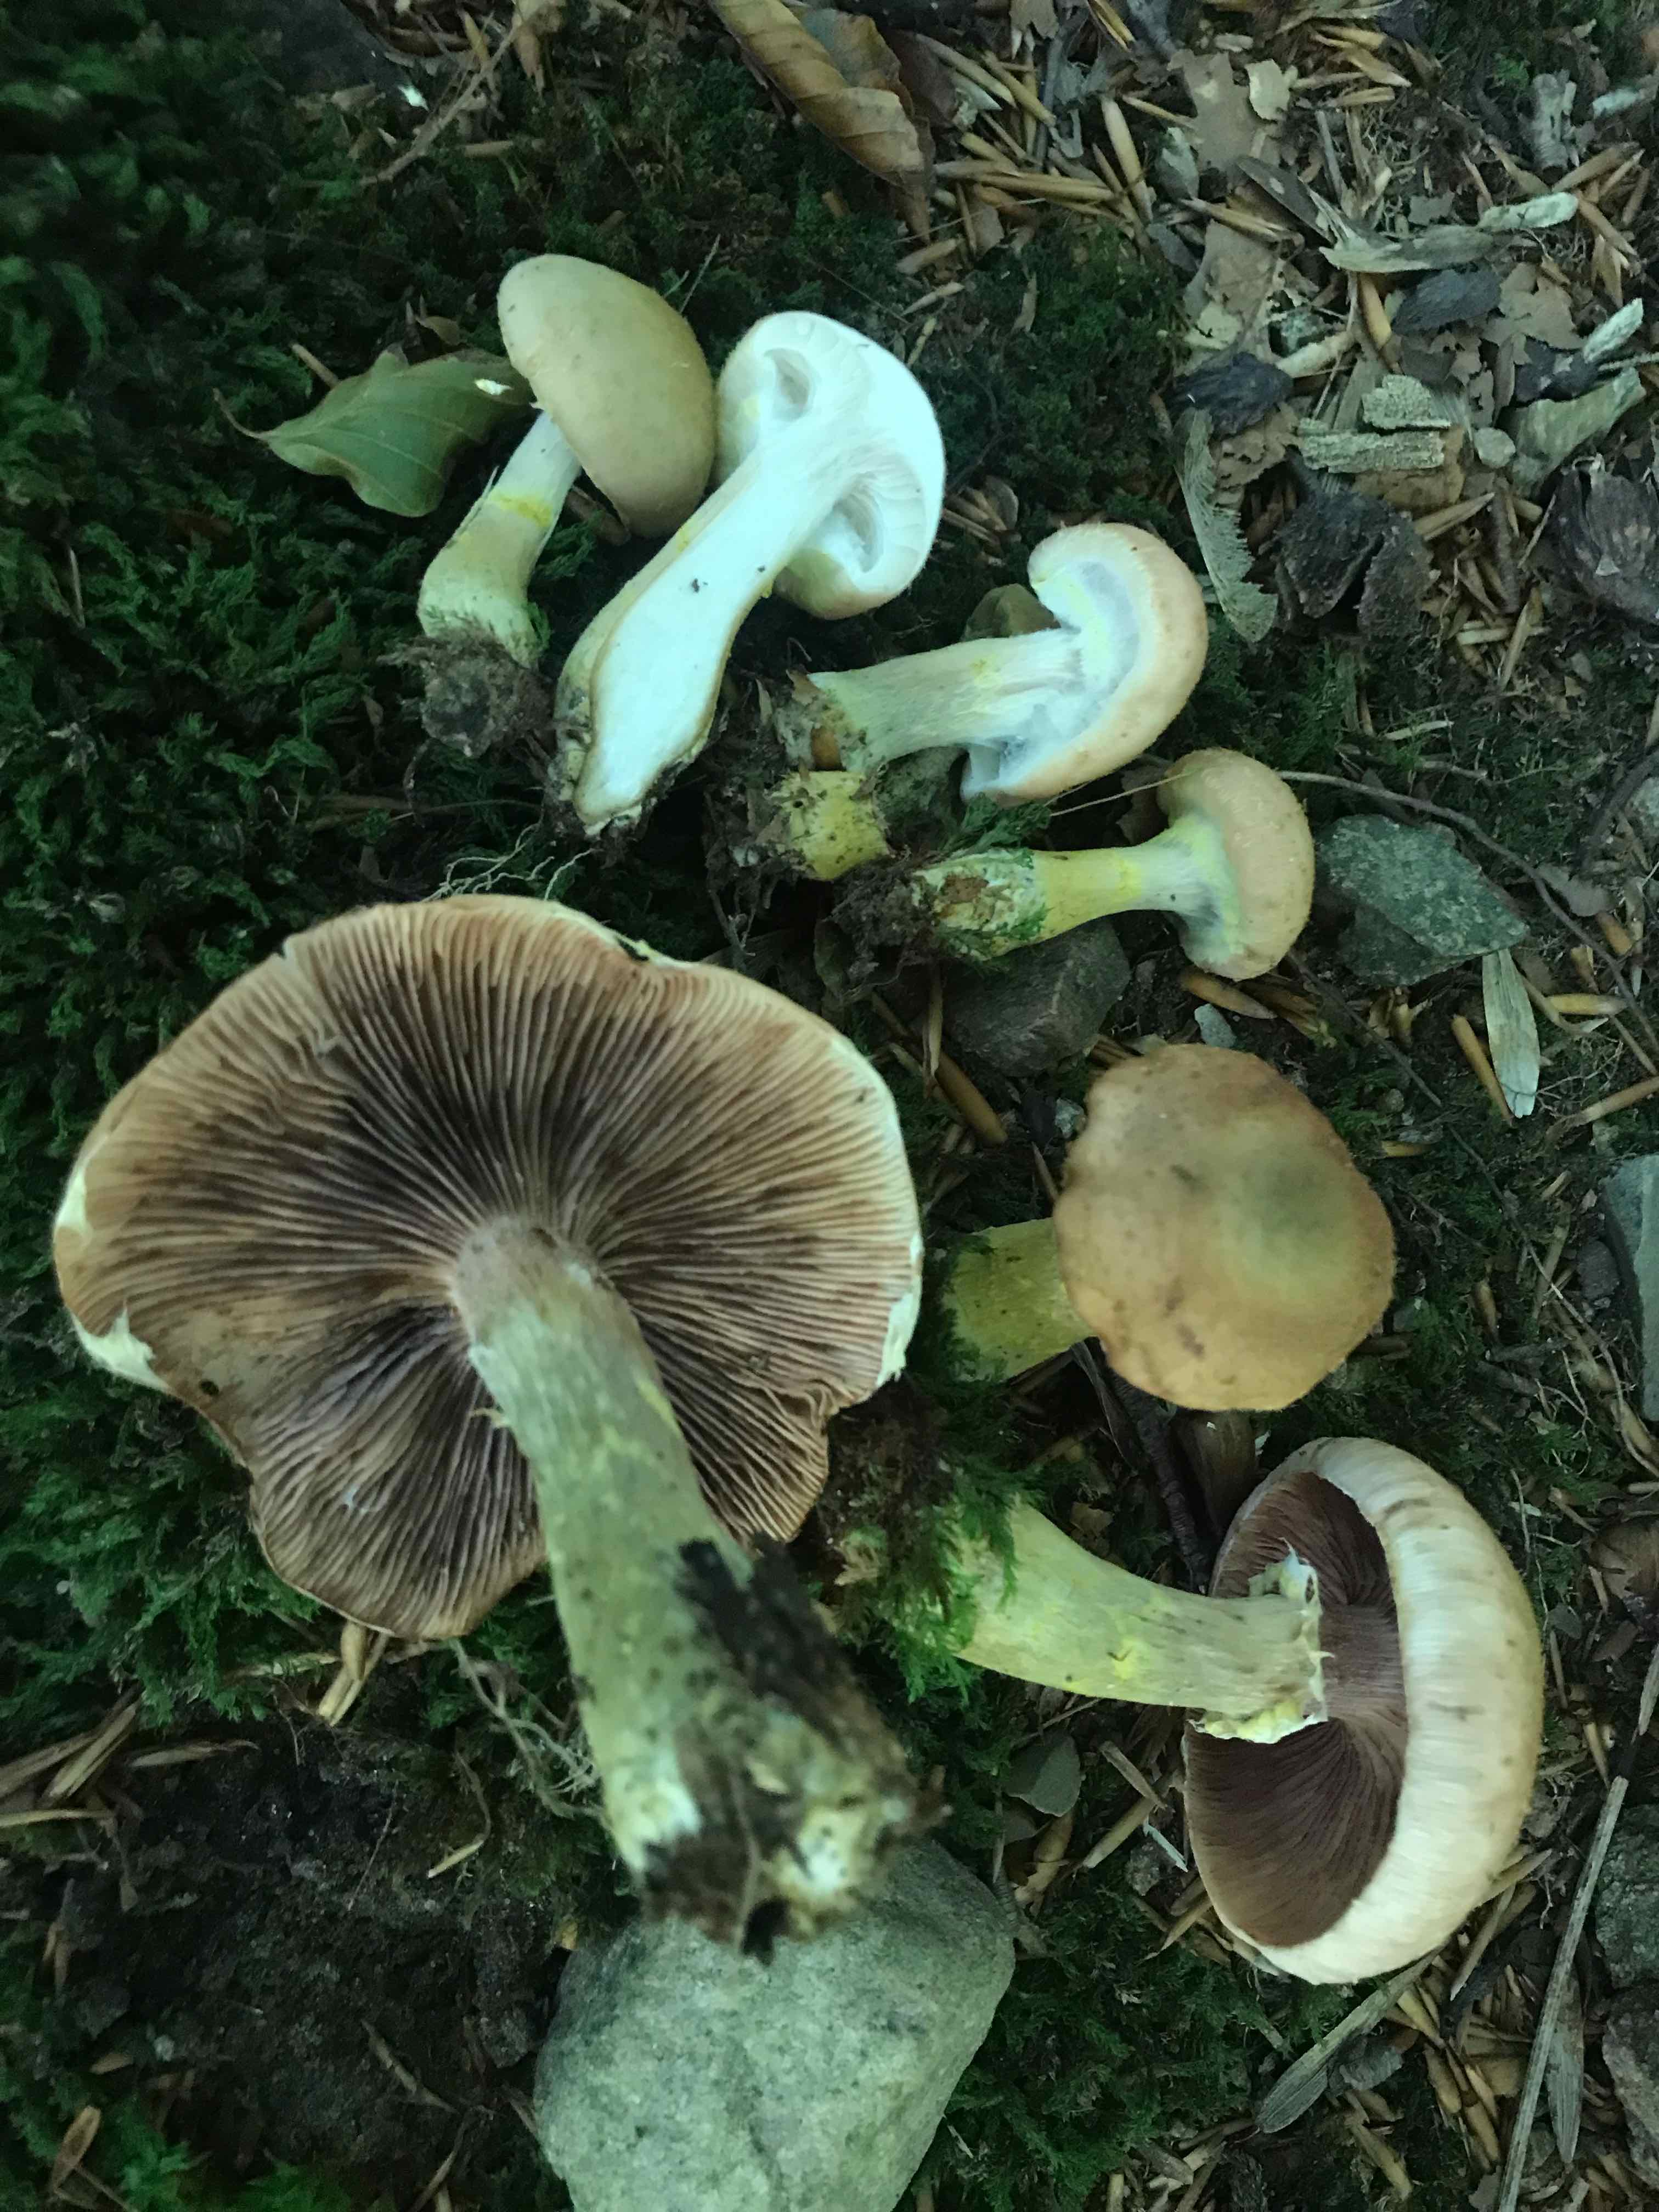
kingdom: Fungi
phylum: Basidiomycota
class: Agaricomycetes
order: Agaricales
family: Physalacriaceae
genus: Armillaria
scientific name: Armillaria lutea
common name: køllestokket honningsvamp
